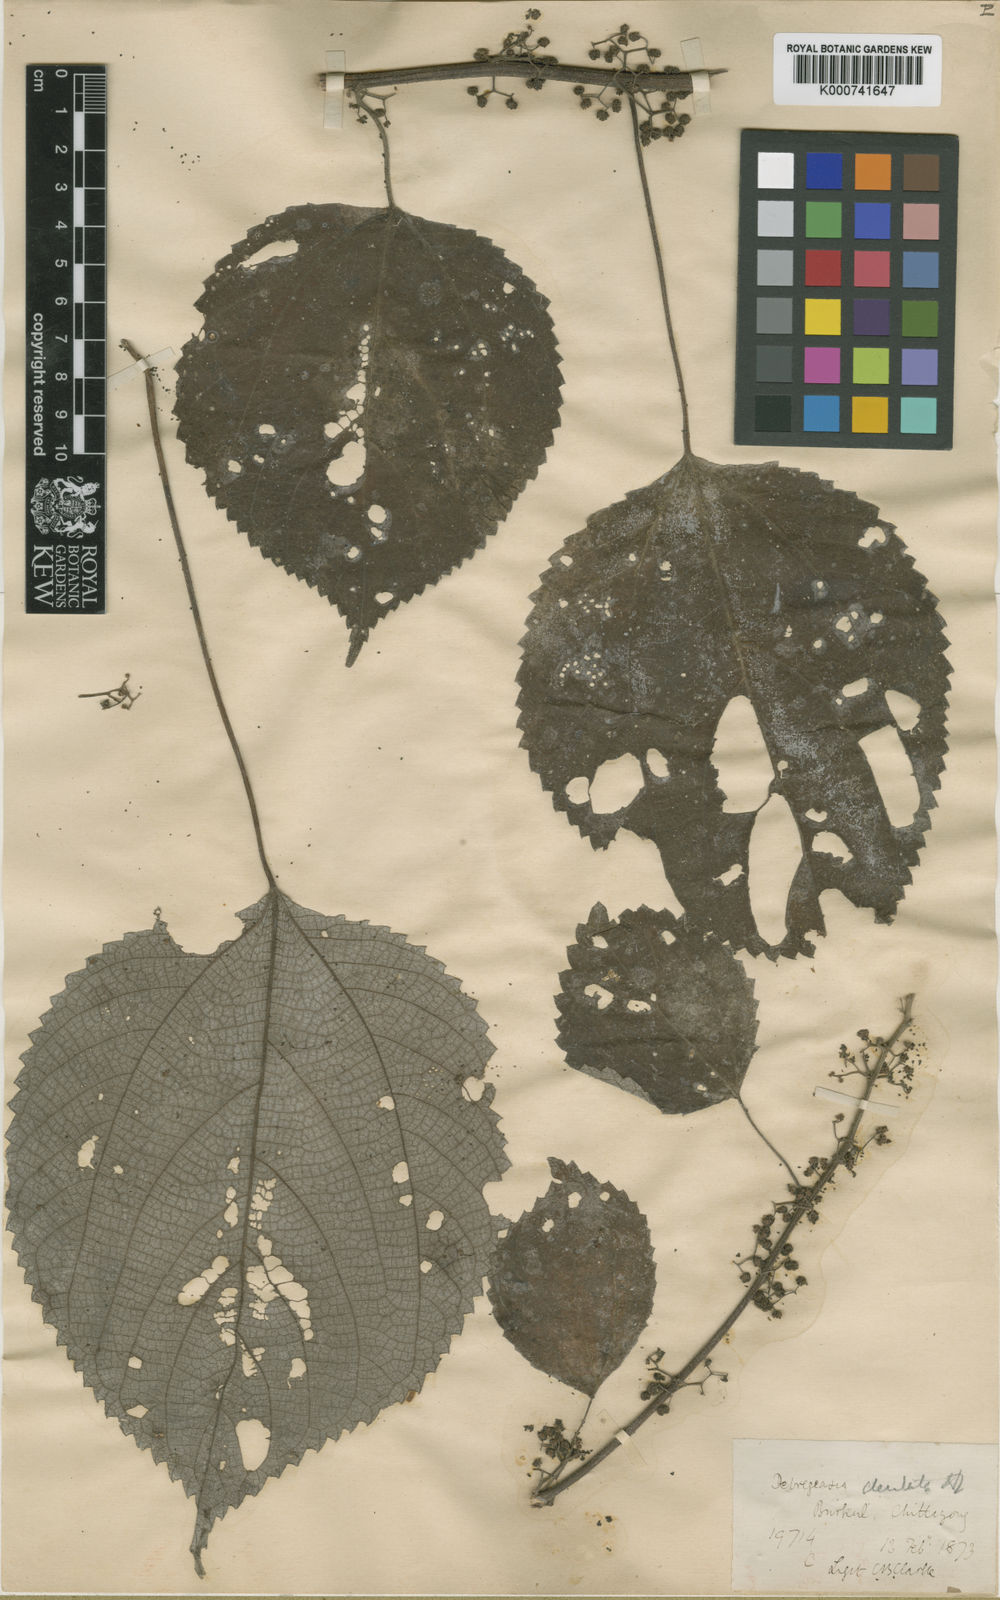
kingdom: Plantae
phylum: Tracheophyta
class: Magnoliopsida
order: Rosales
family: Urticaceae
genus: Debregeasia
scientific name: Debregeasia dentata
